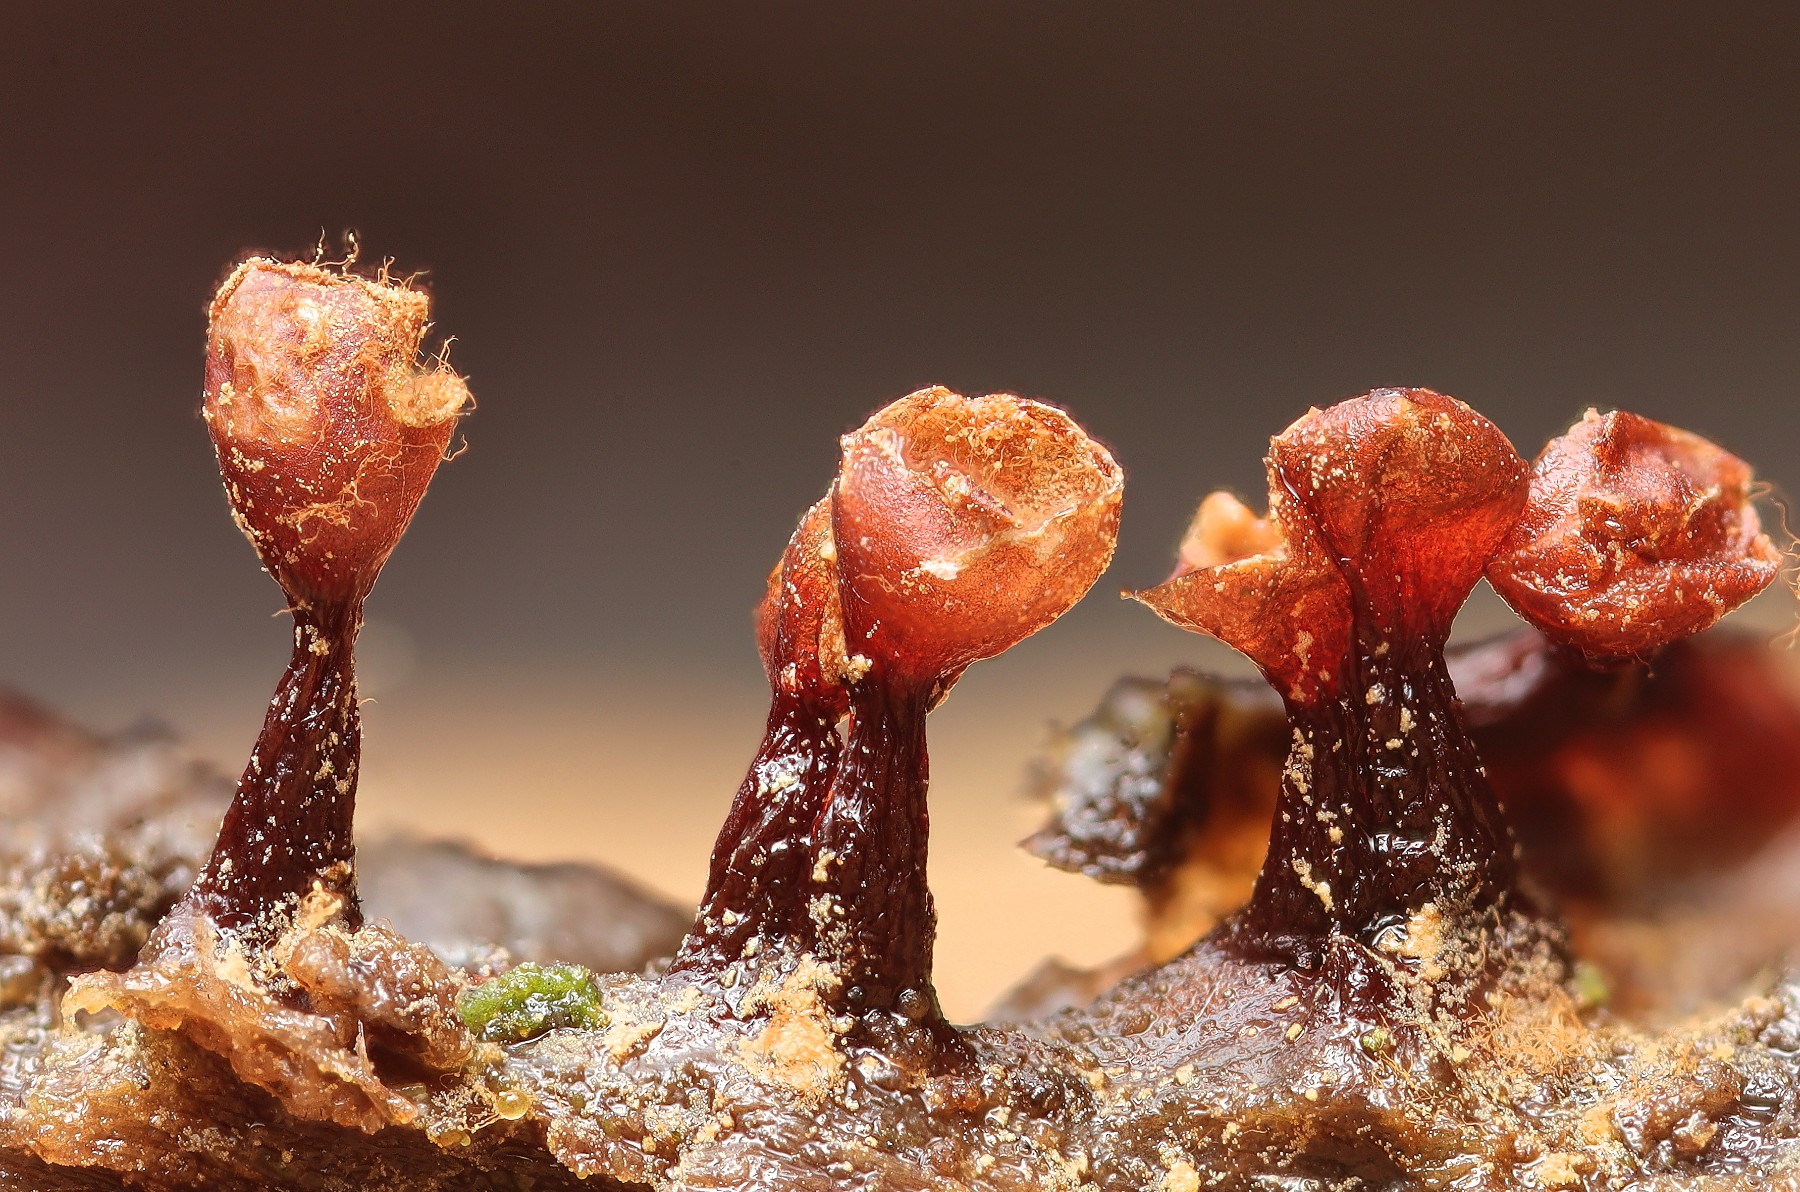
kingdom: Protozoa
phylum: Mycetozoa
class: Myxomycetes
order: Trichiales
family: Trichiaceae
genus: Trichia
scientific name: Trichia botrytis
